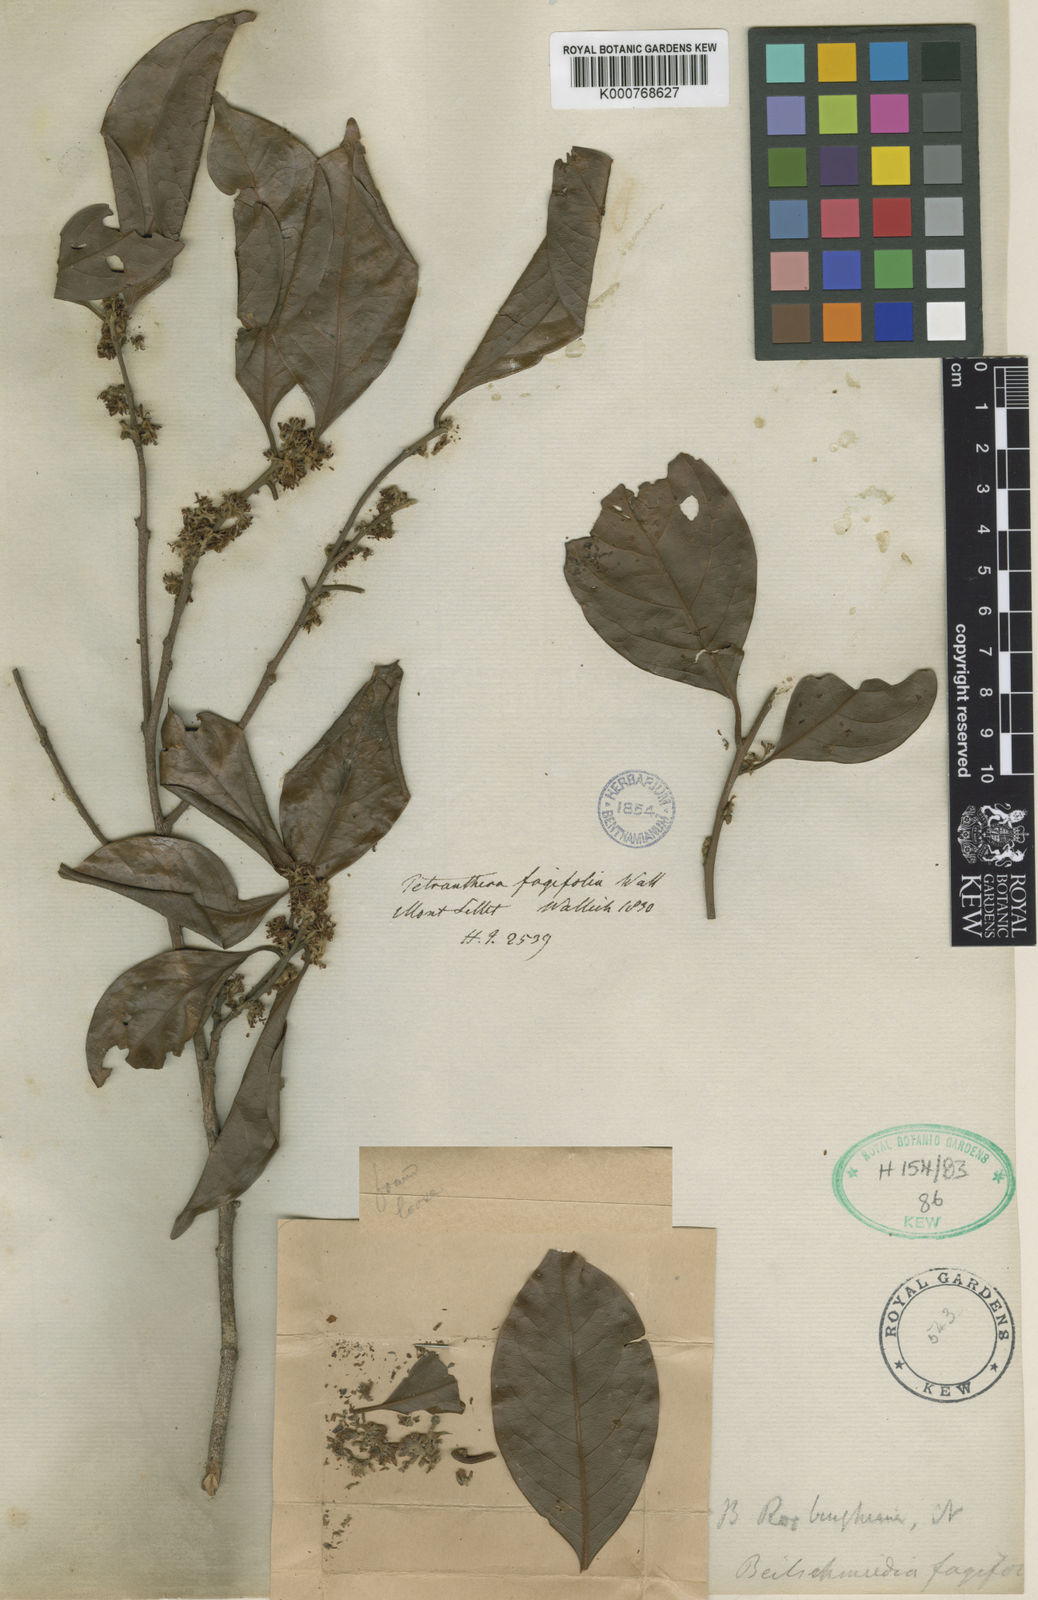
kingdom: Plantae
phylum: Tracheophyta
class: Magnoliopsida
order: Laurales
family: Lauraceae
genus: Beilschmiedia
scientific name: Beilschmiedia fagifolia
